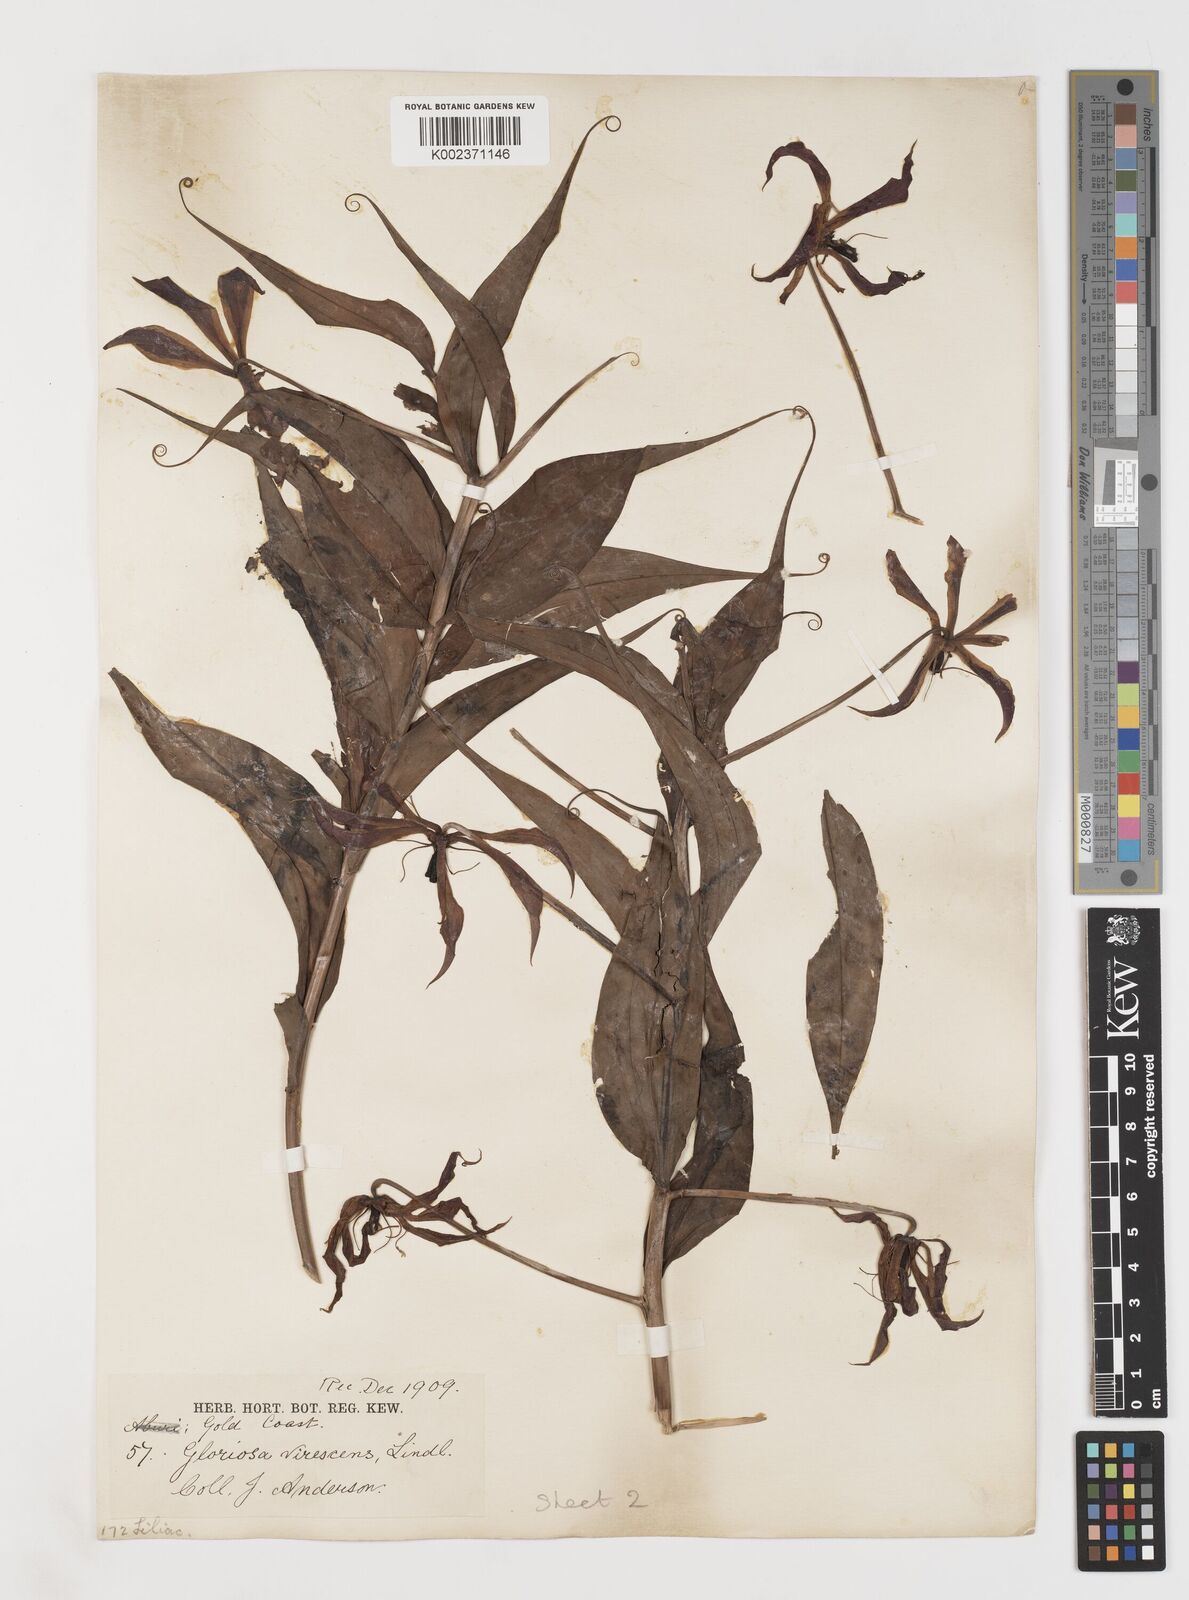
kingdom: Plantae
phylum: Tracheophyta
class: Liliopsida
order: Liliales
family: Colchicaceae
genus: Gloriosa
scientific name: Gloriosa simplex
